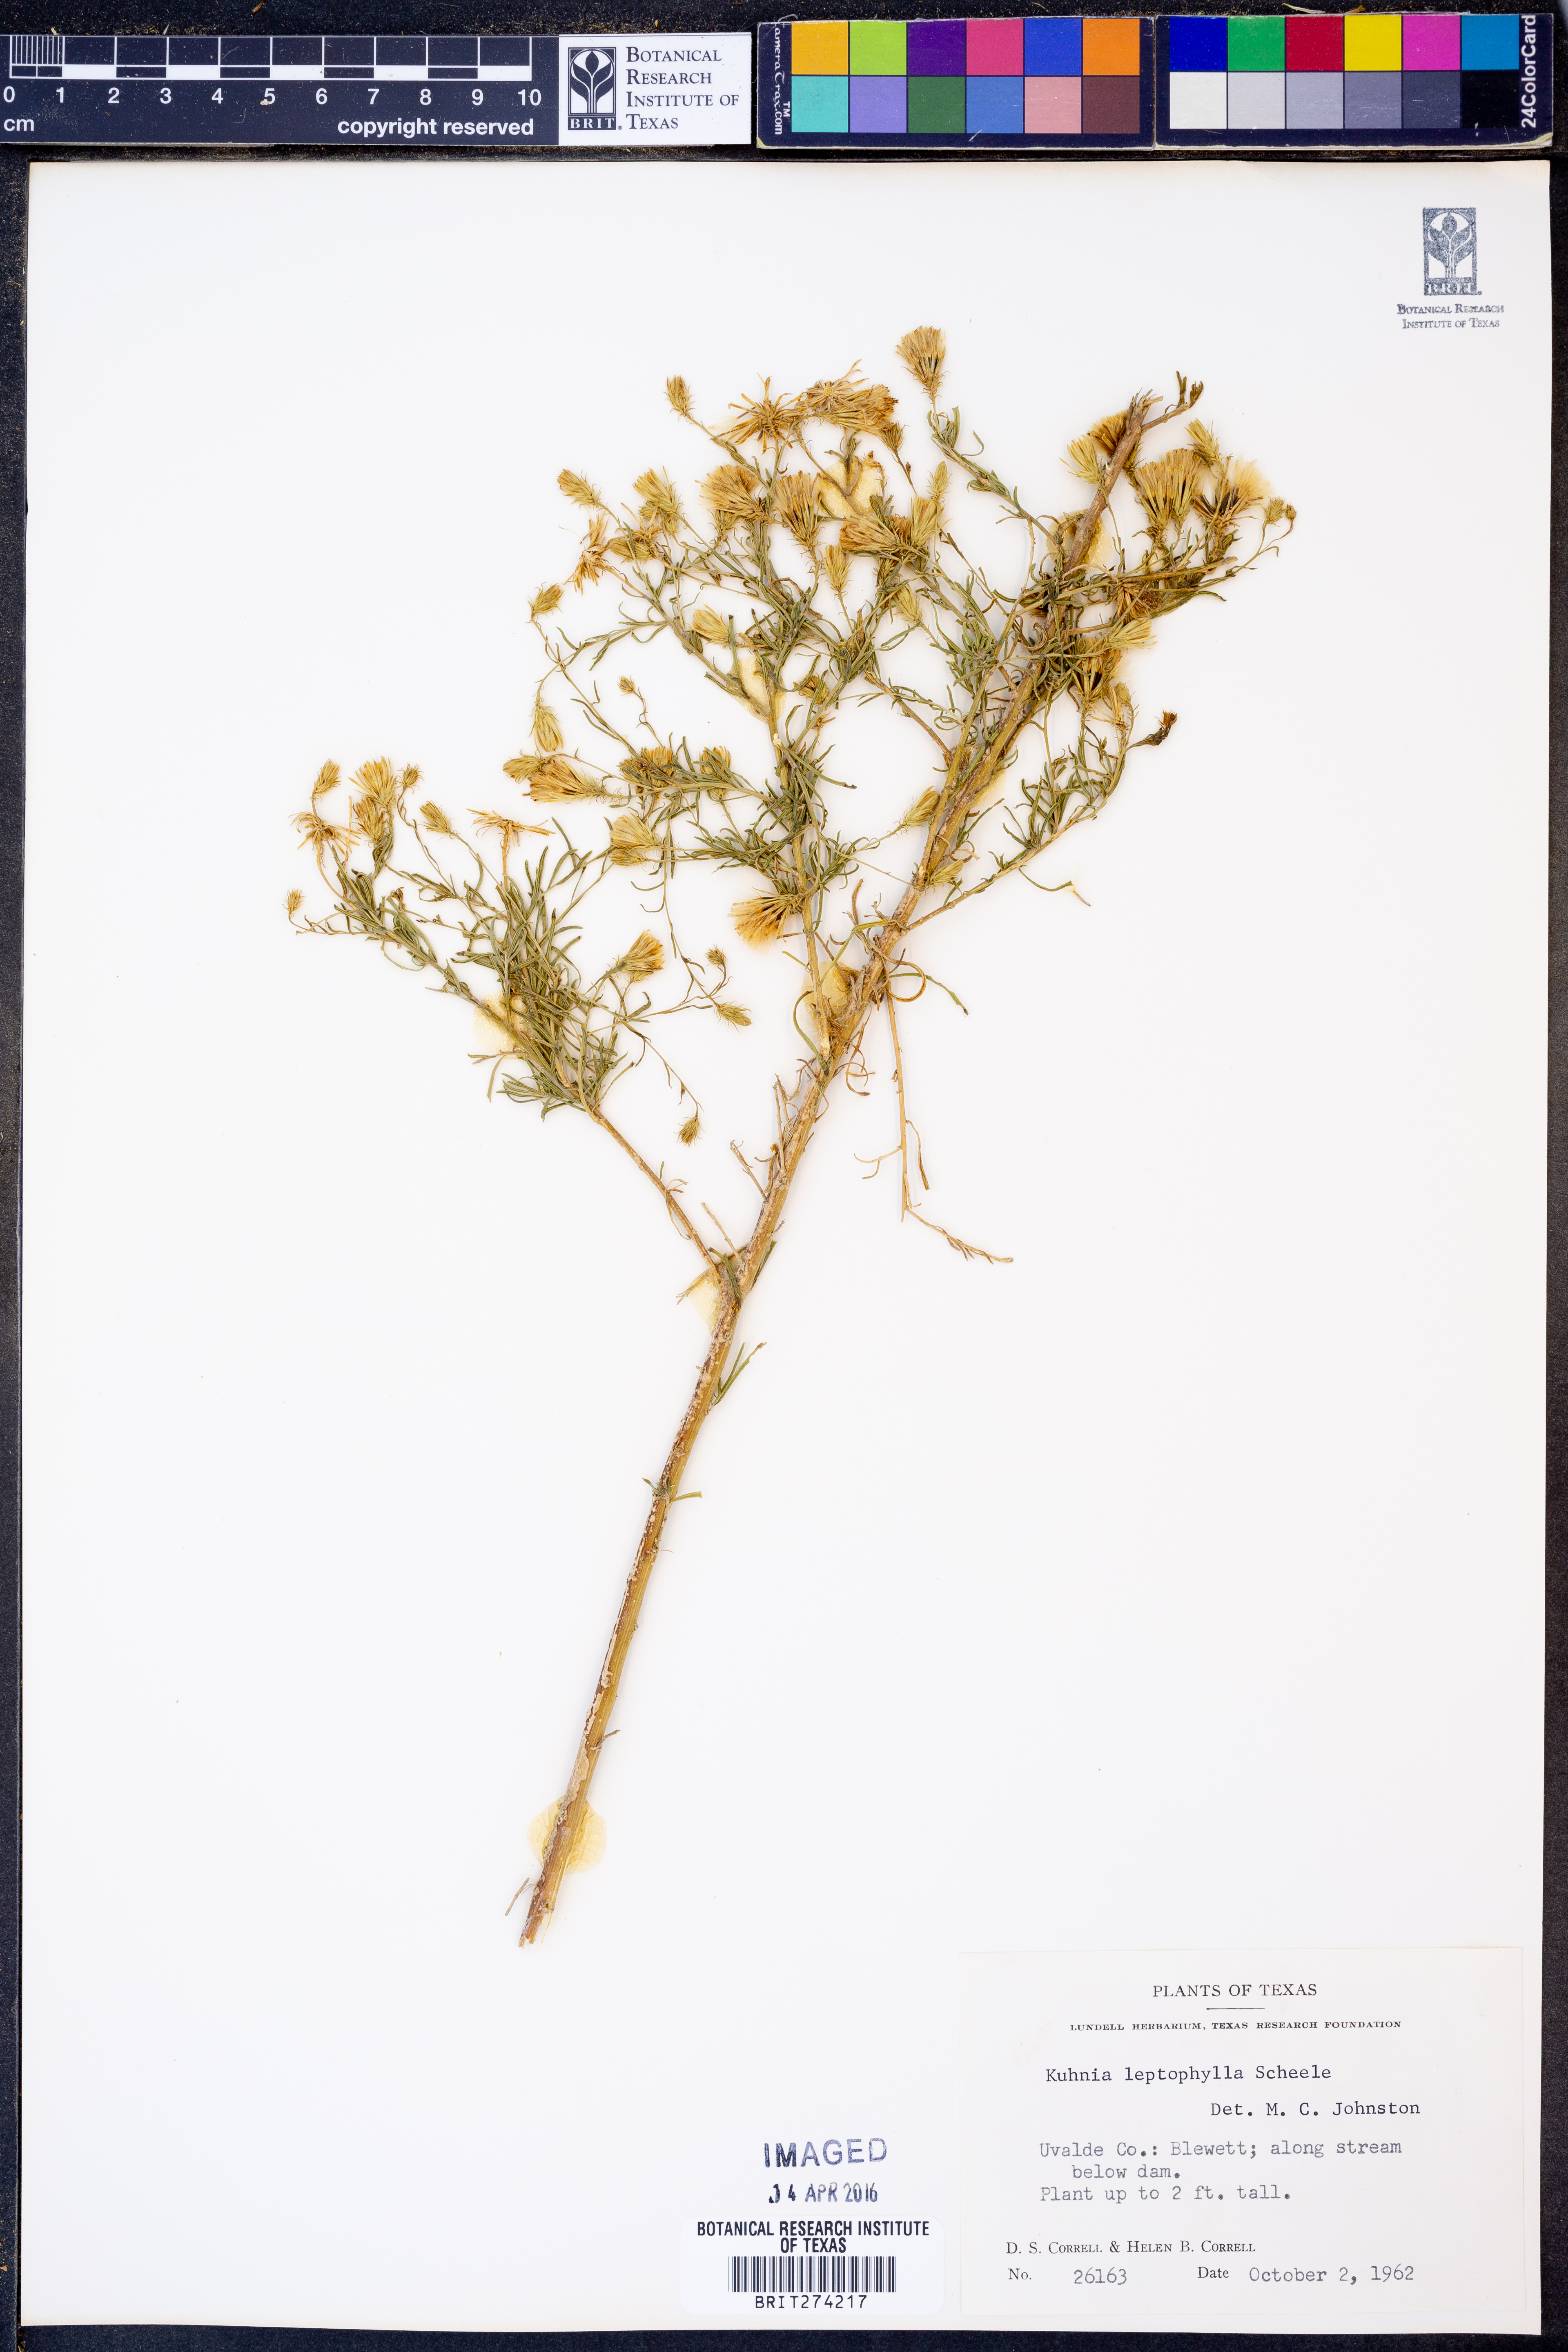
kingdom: Plantae
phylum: Tracheophyta
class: Magnoliopsida
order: Asterales
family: Asteraceae
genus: Brickellia
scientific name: Brickellia leptophylla
